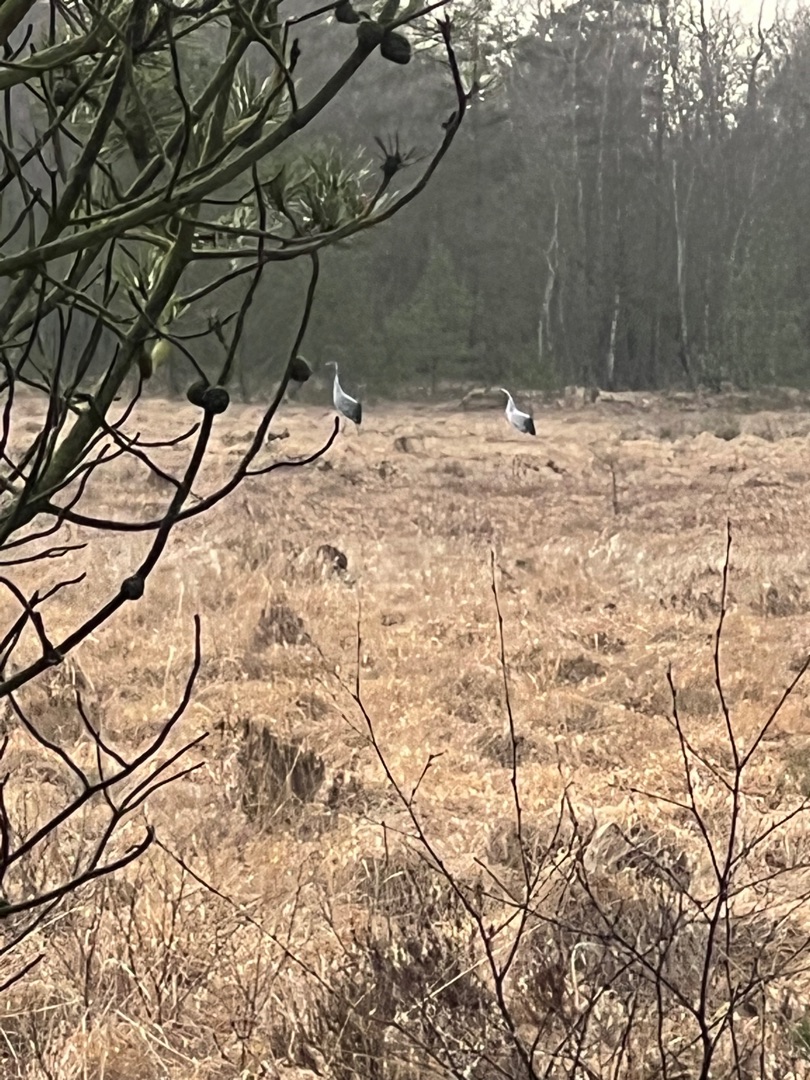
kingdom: Animalia
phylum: Chordata
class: Aves
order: Gruiformes
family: Gruidae
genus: Grus
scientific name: Grus grus
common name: Trane
